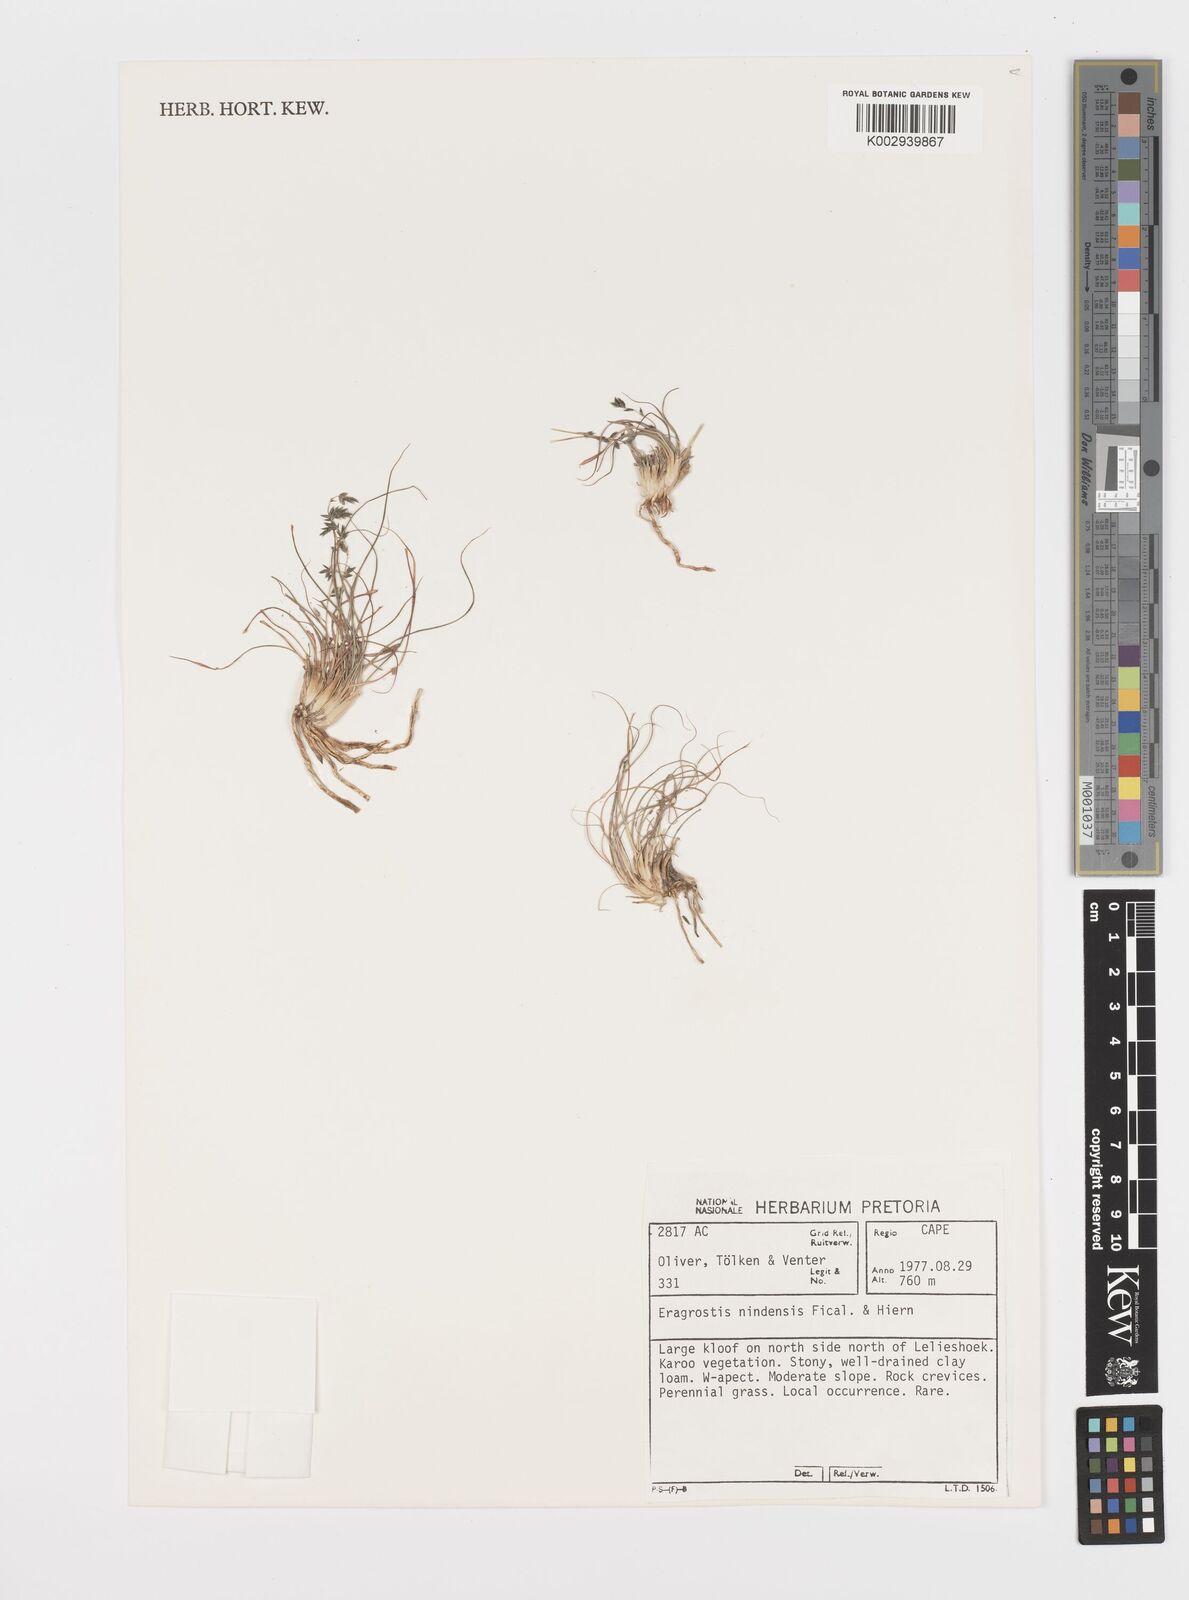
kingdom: Plantae
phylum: Tracheophyta
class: Liliopsida
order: Poales
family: Poaceae
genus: Eragrostis
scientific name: Eragrostis nindensis
